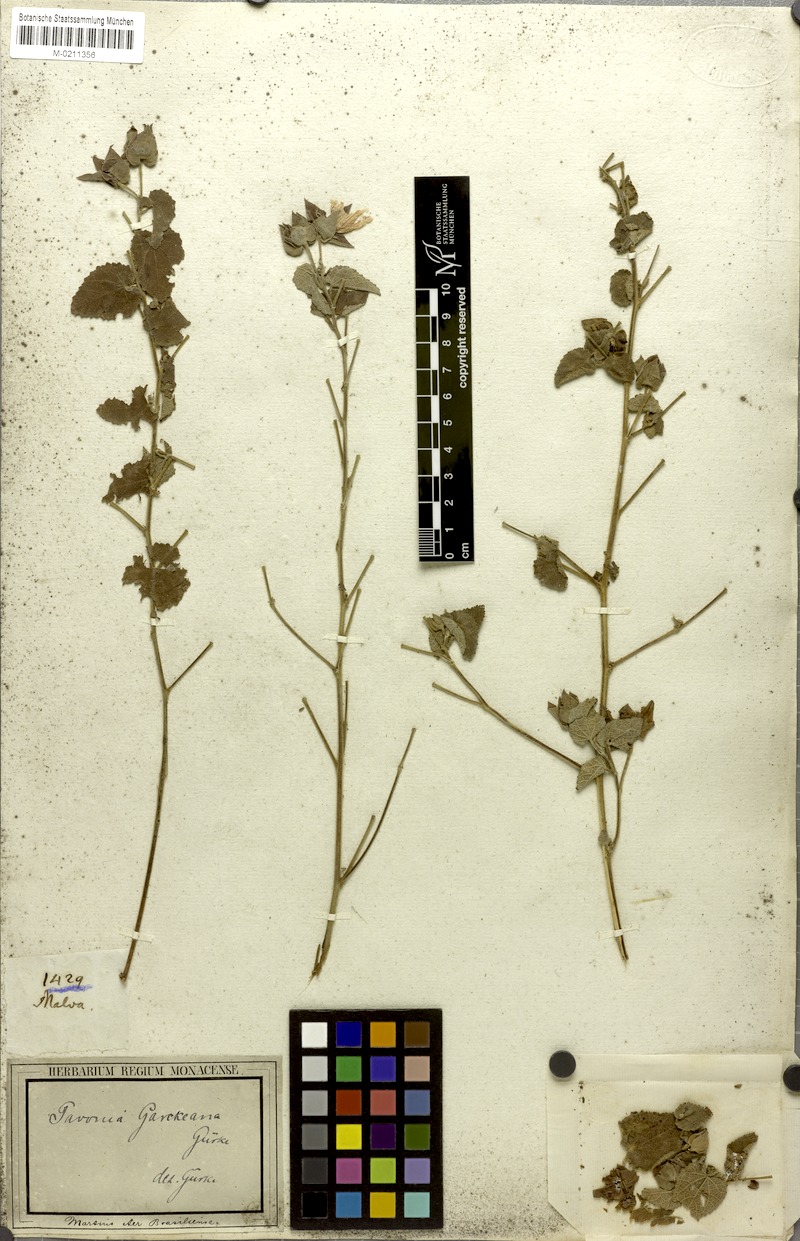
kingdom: Plantae
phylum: Tracheophyta
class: Magnoliopsida
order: Malvales
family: Malvaceae
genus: Pavonia
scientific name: Pavonia garckeana
